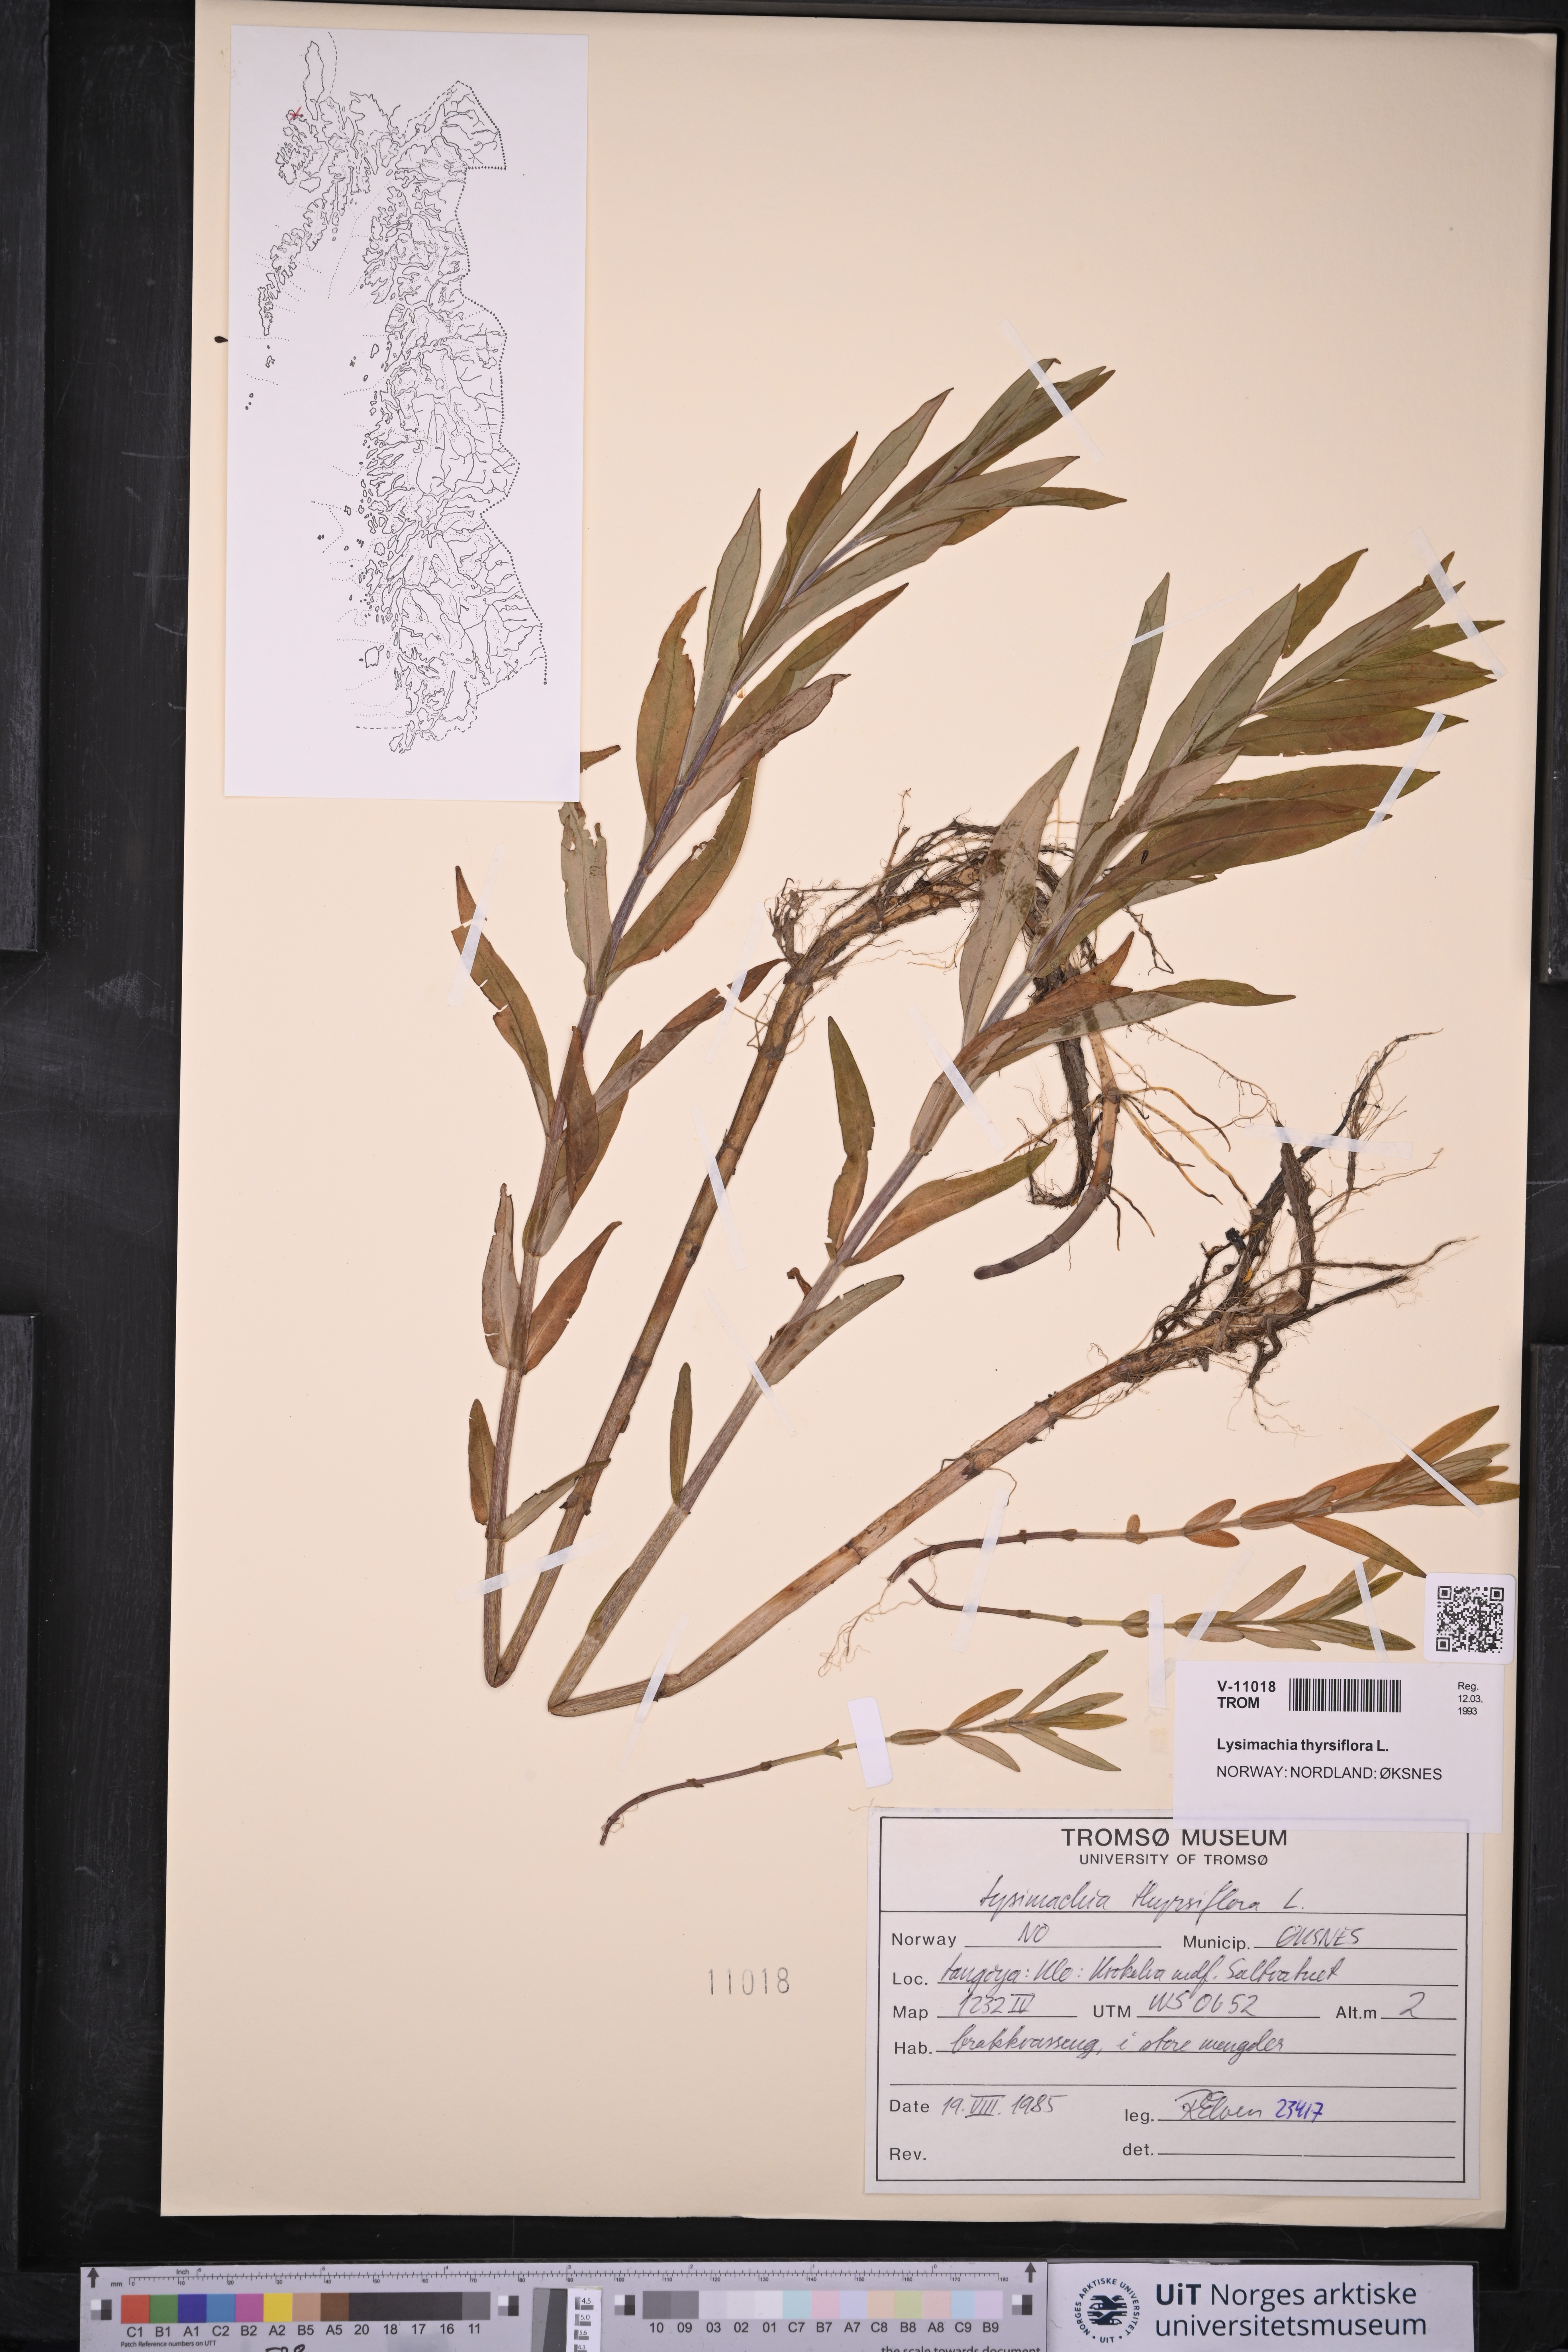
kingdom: Plantae
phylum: Tracheophyta
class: Magnoliopsida
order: Ericales
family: Primulaceae
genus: Lysimachia
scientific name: Lysimachia thyrsiflora
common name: Tufted loosestrife
